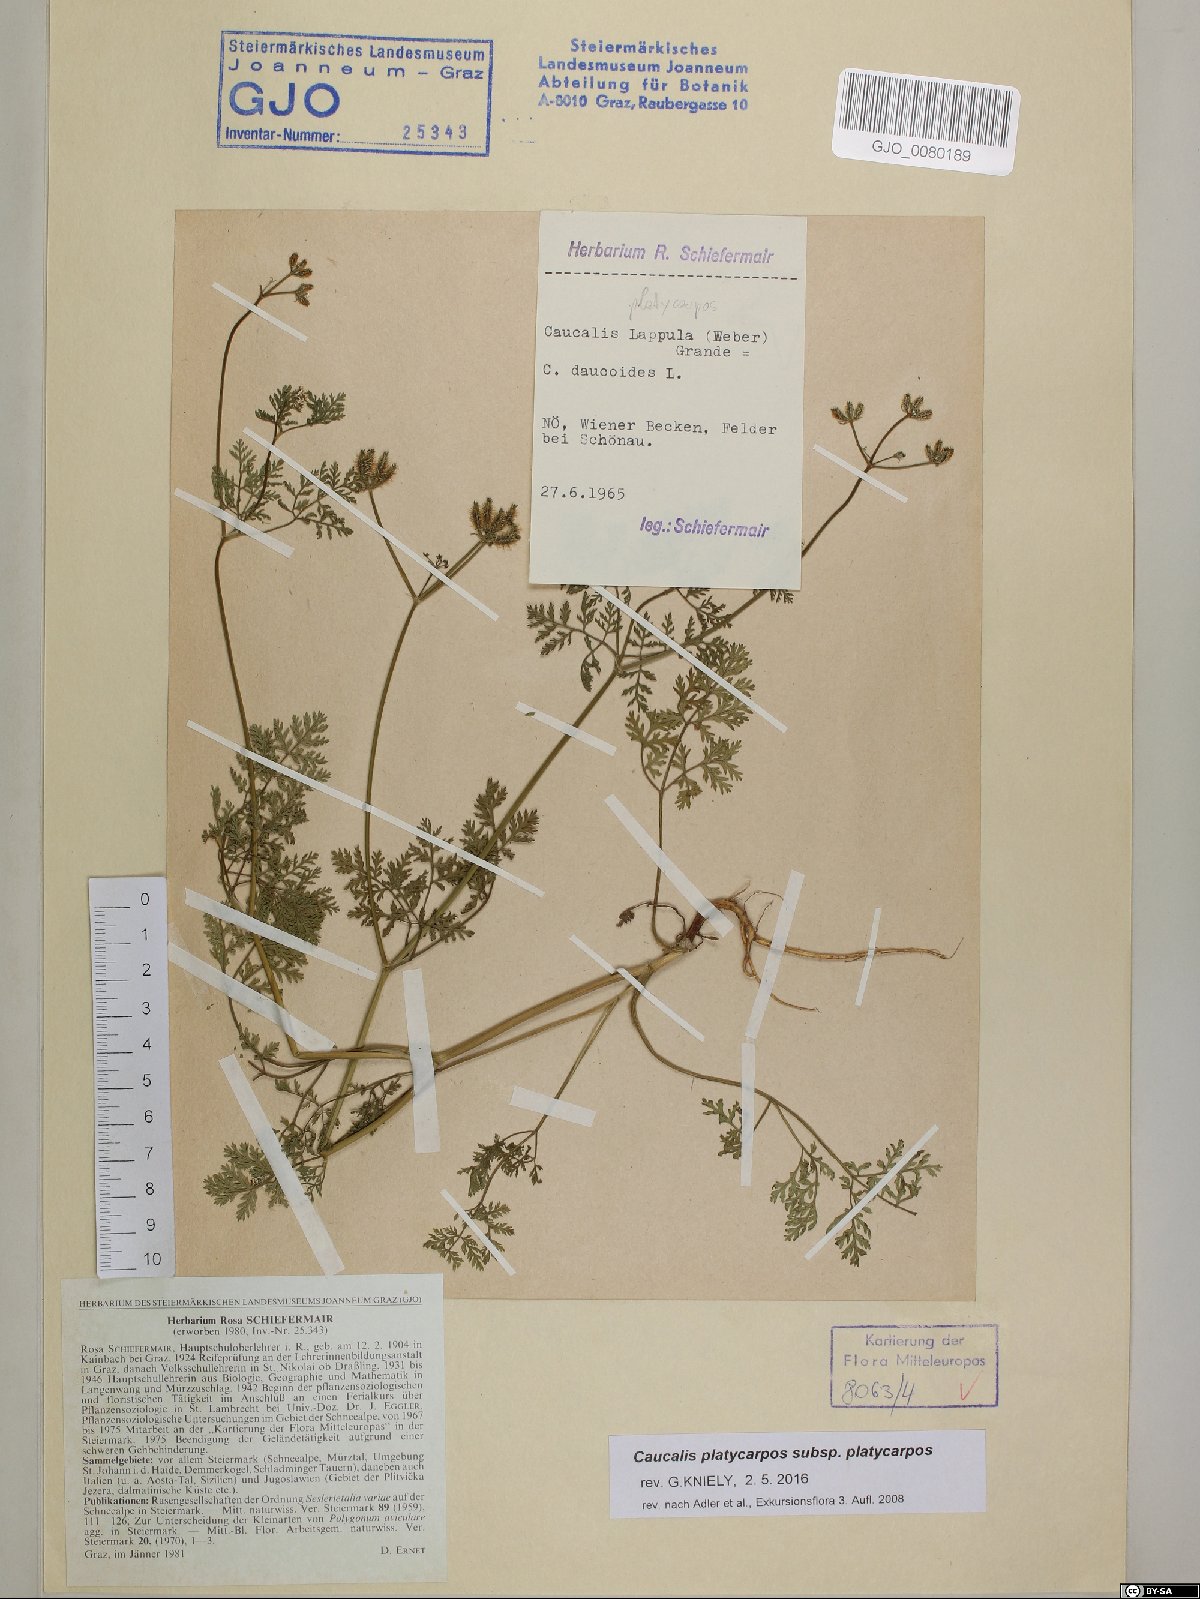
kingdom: Plantae
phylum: Tracheophyta
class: Magnoliopsida
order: Apiales
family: Apiaceae
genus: Caucalis
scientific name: Caucalis platycarpos
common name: Small bur-parsley
